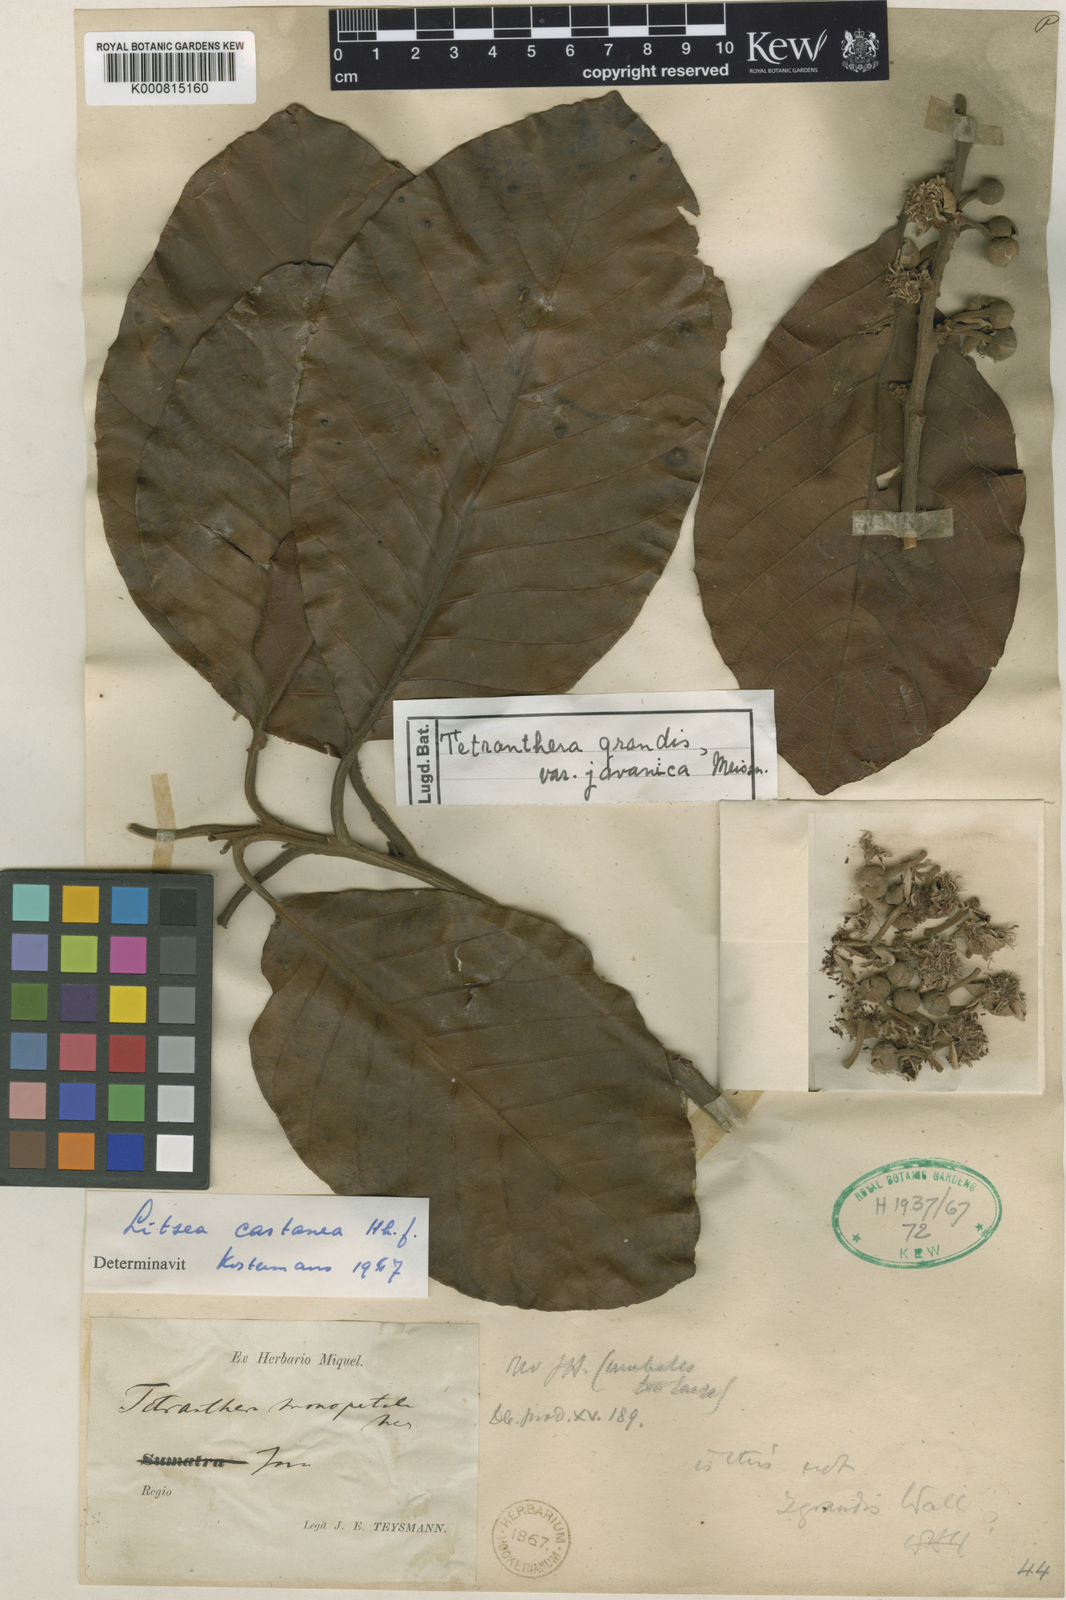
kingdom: Plantae
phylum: Tracheophyta
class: Magnoliopsida
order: Laurales
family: Lauraceae
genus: Litsea
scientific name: Litsea castanea
